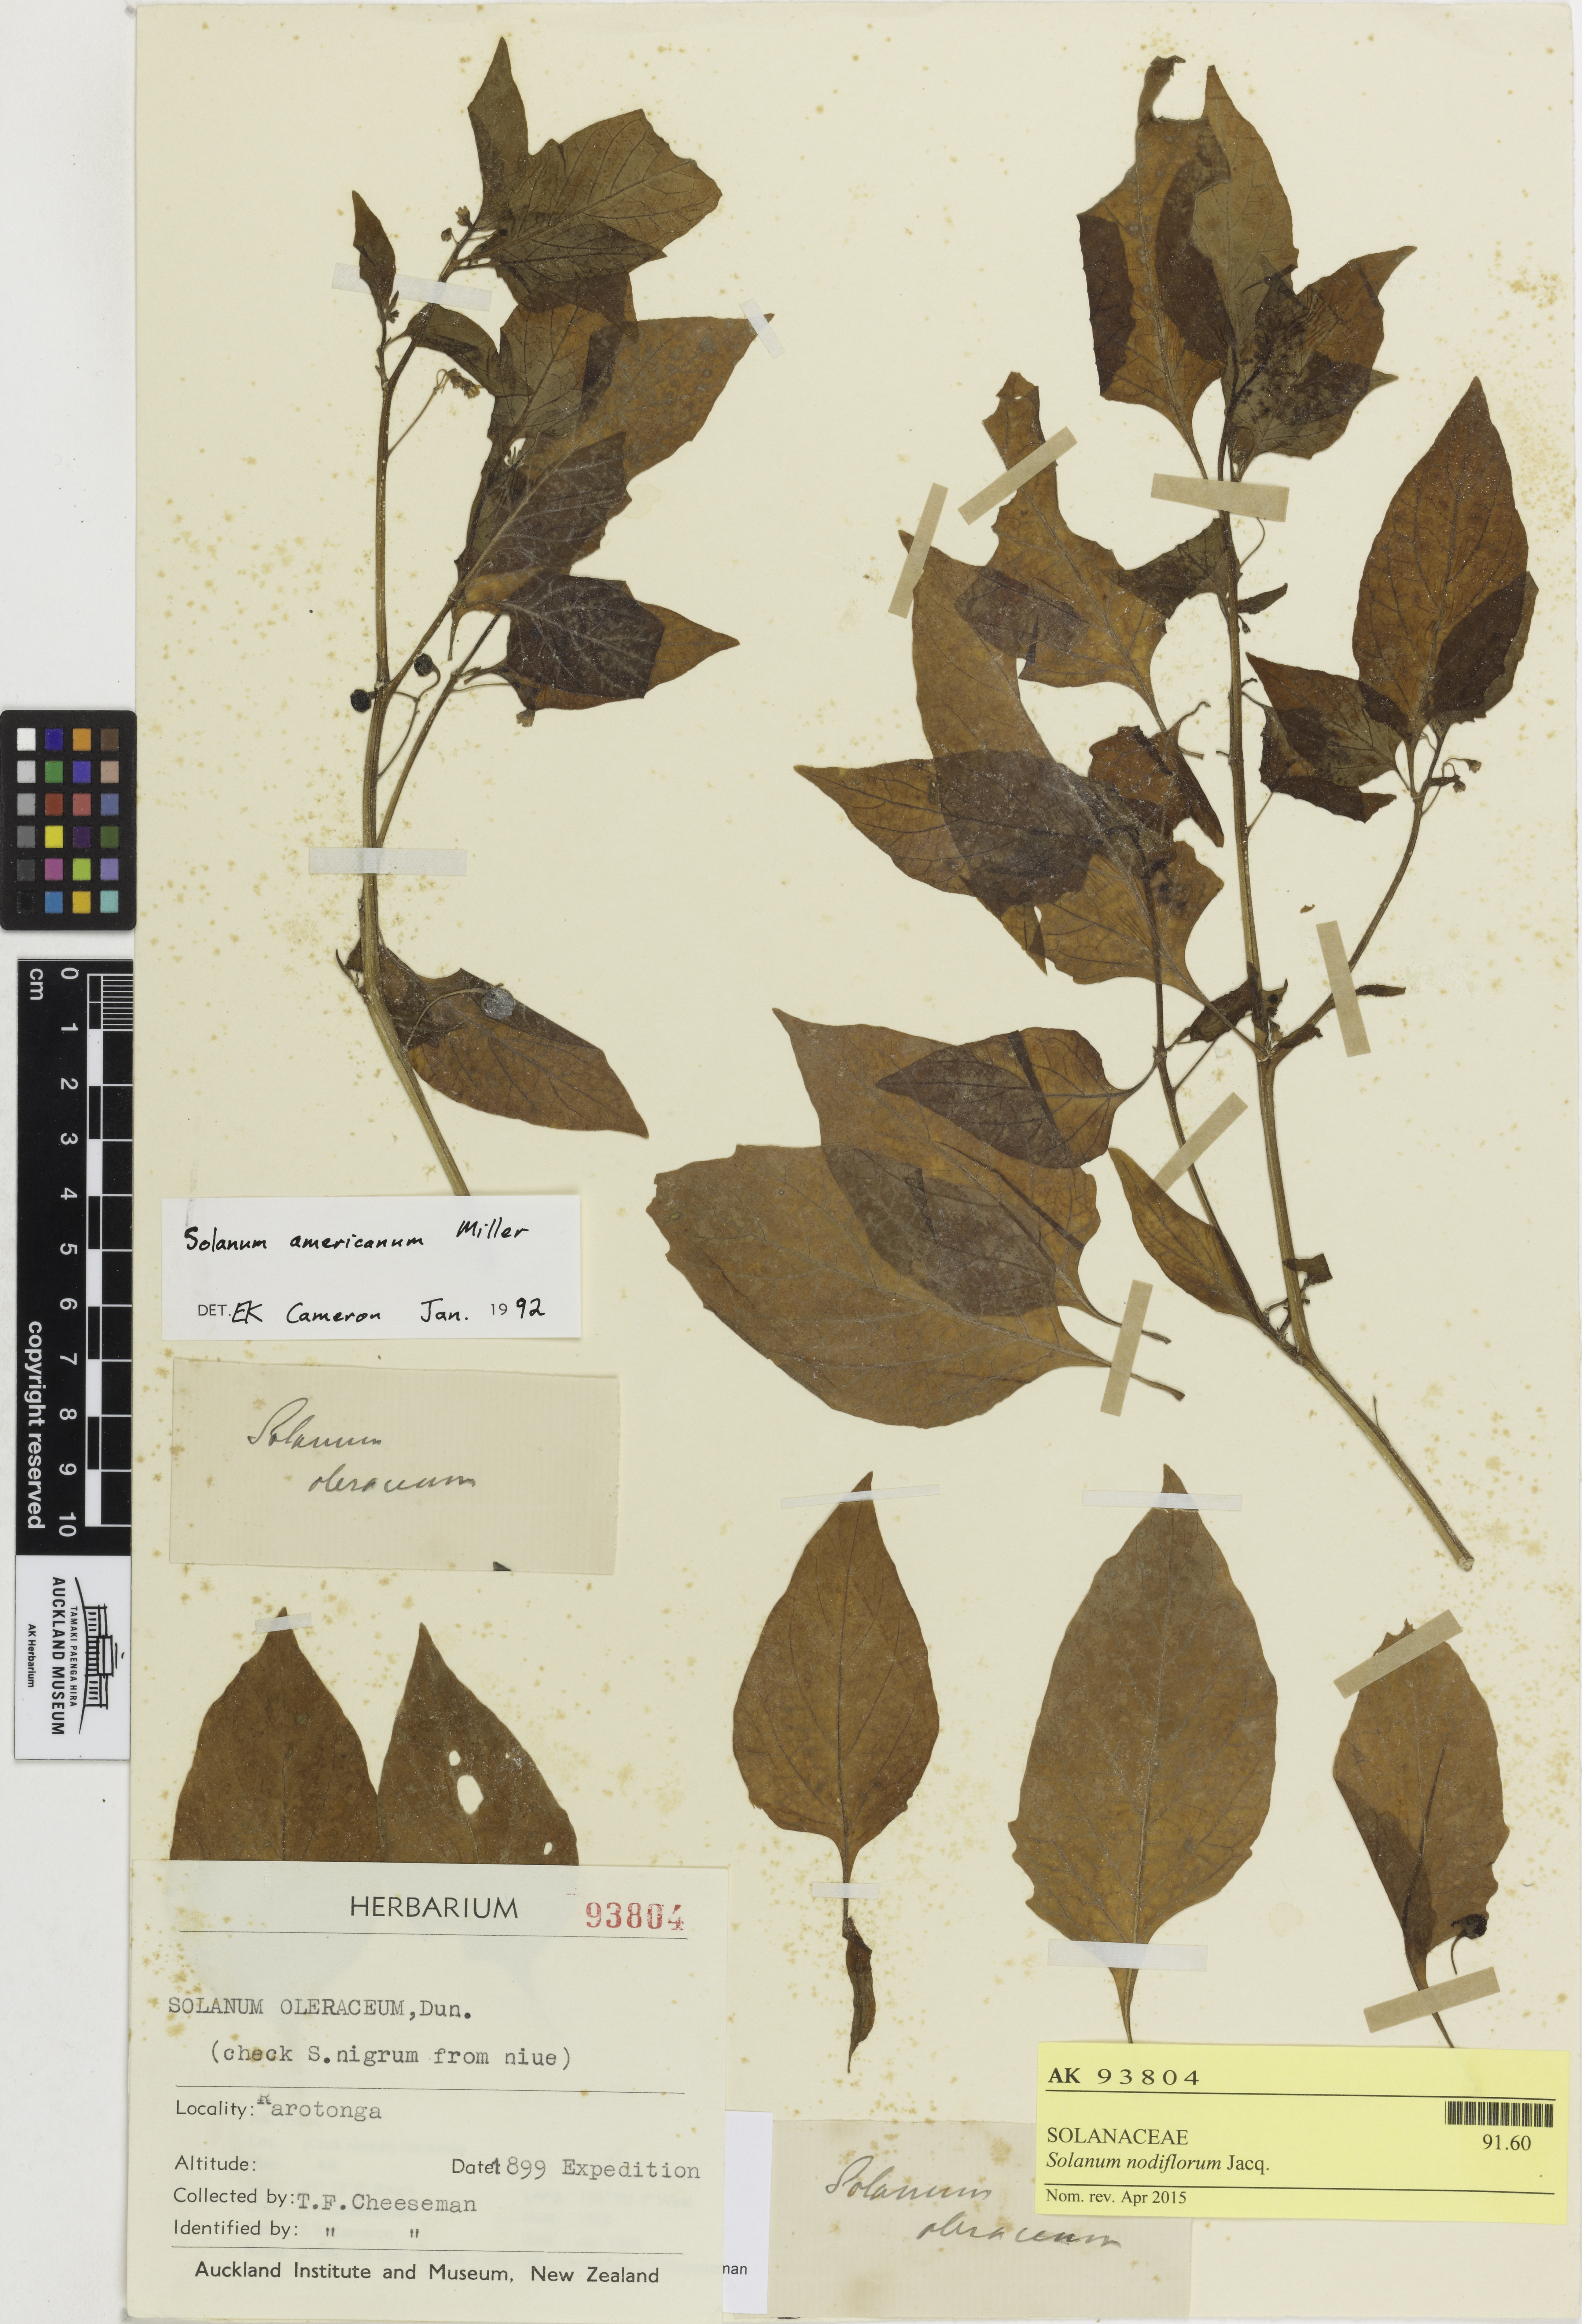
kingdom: Plantae
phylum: Tracheophyta
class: Magnoliopsida
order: Solanales
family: Solanaceae
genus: Solanum
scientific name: Solanum opacum
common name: Green-berry nightshade
